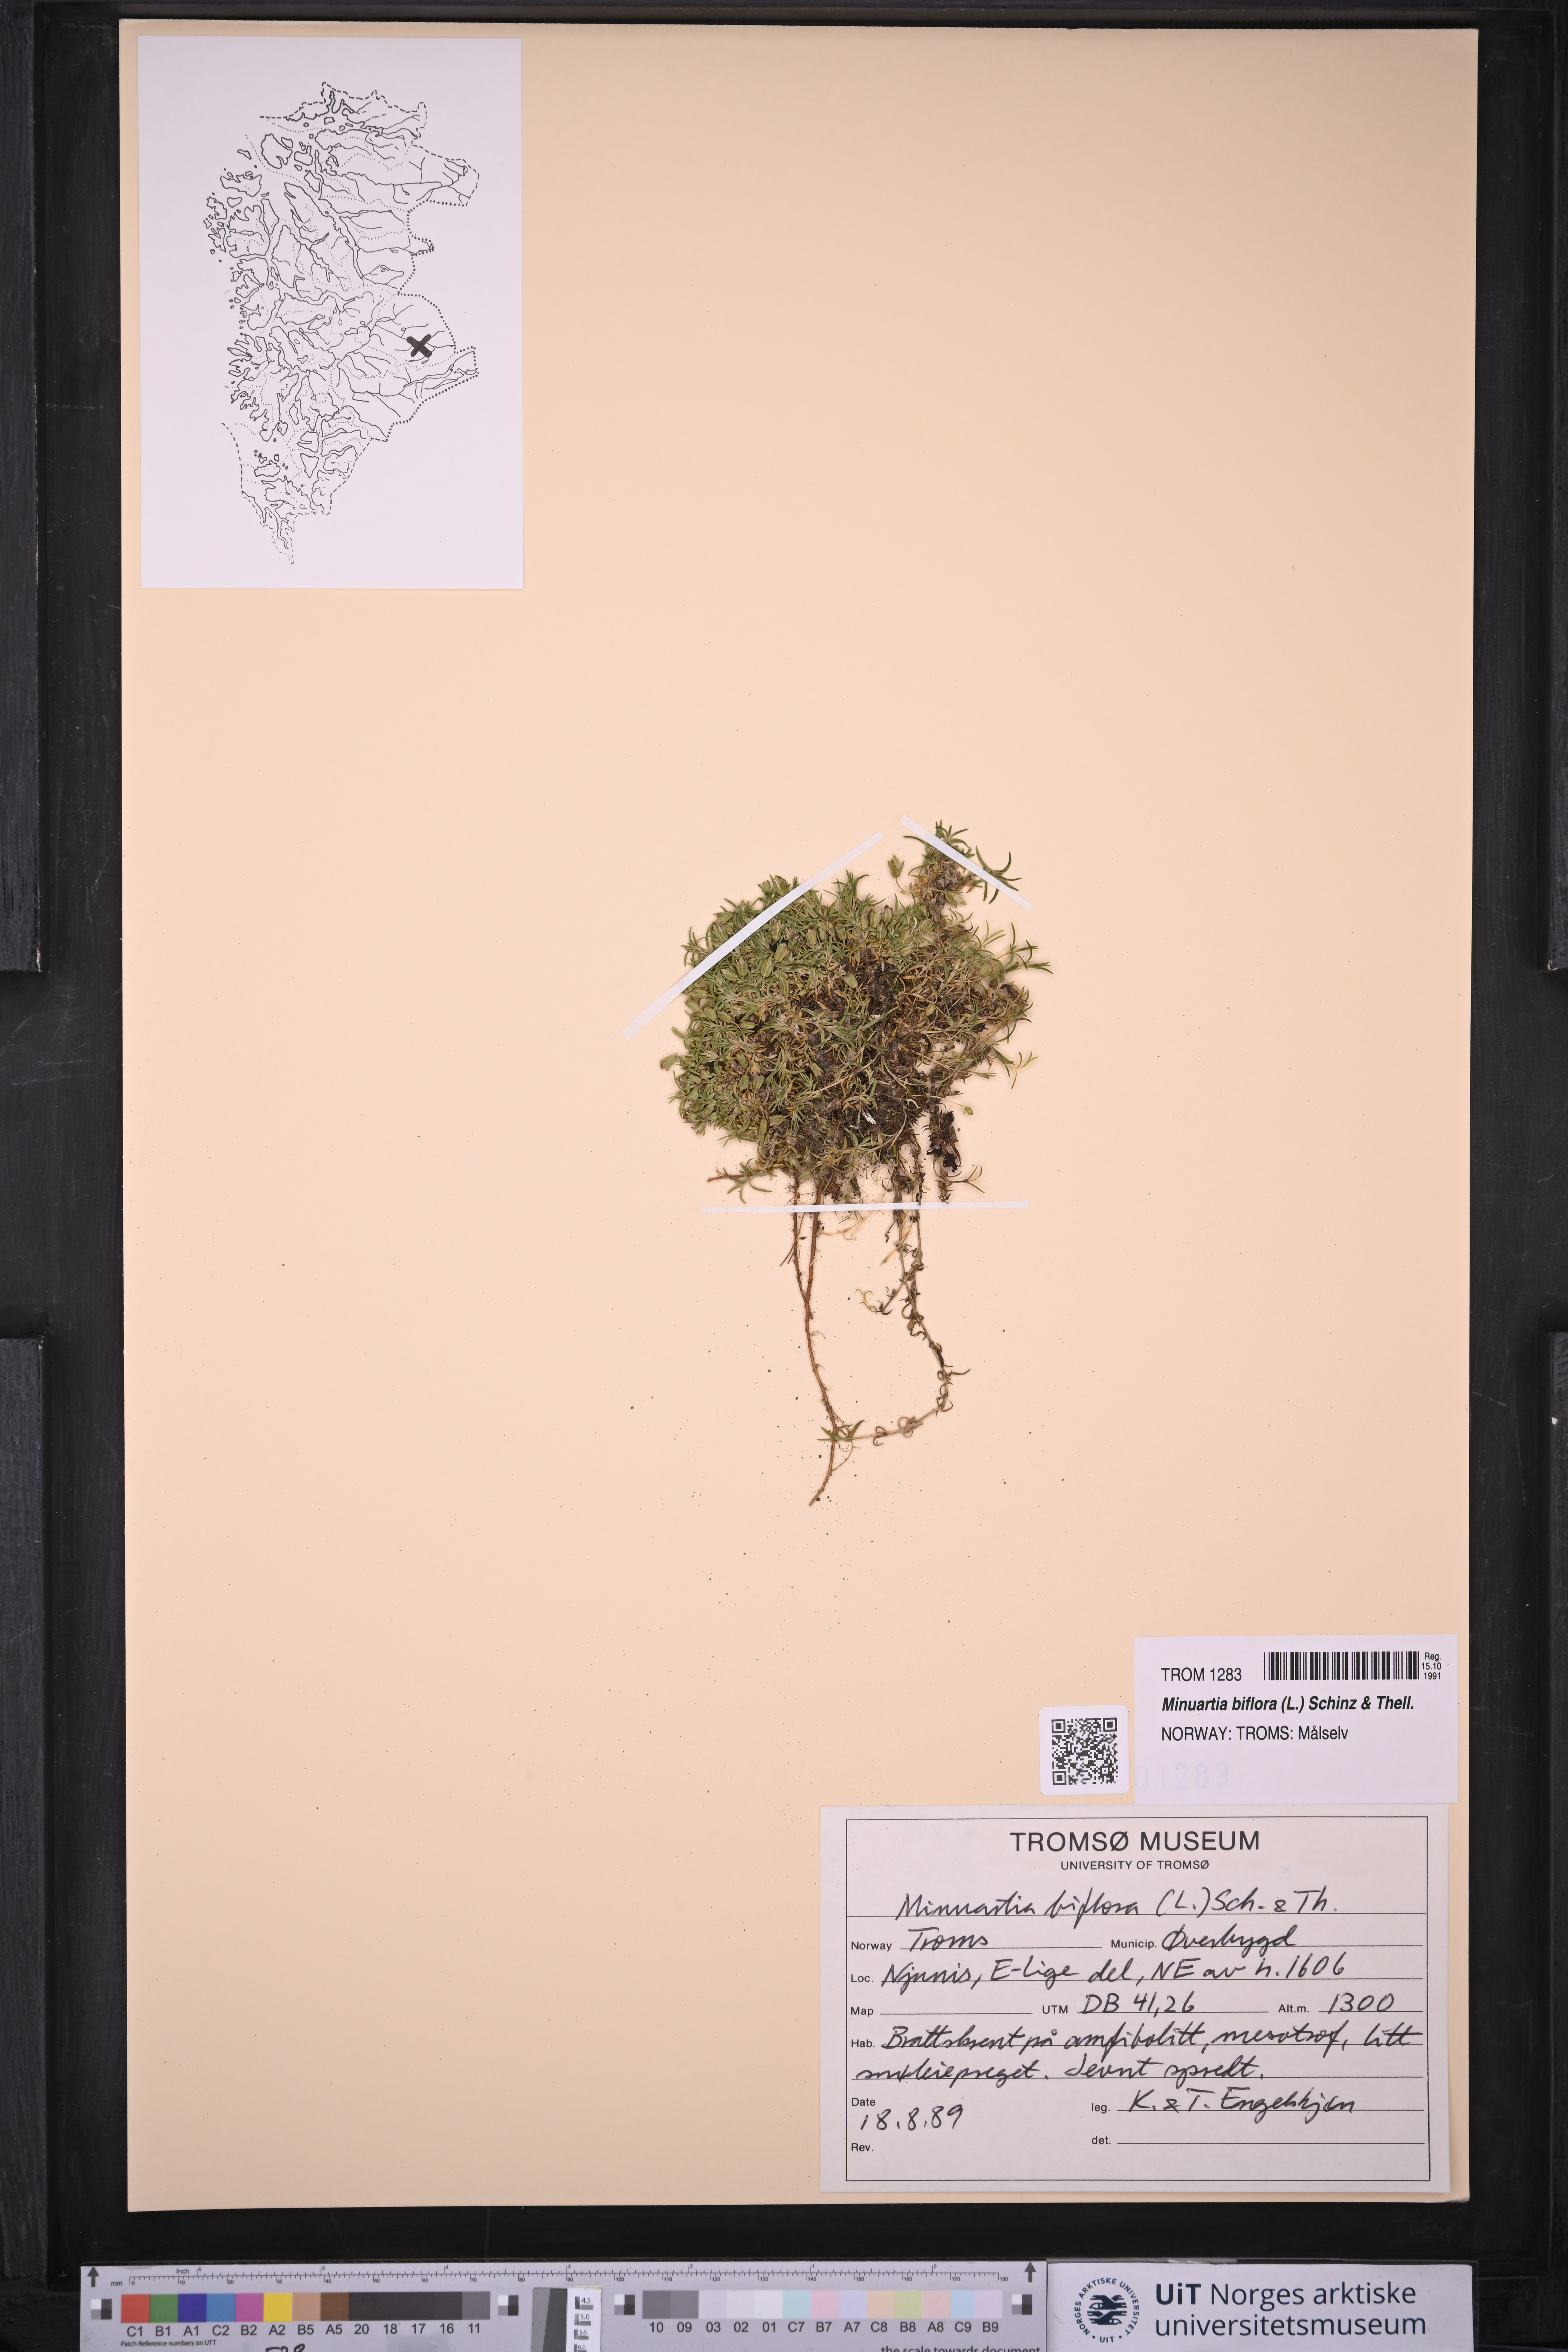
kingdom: Plantae
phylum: Tracheophyta
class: Magnoliopsida
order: Caryophyllales
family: Caryophyllaceae
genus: Cherleria
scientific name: Cherleria biflora
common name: Mountain sandwort
